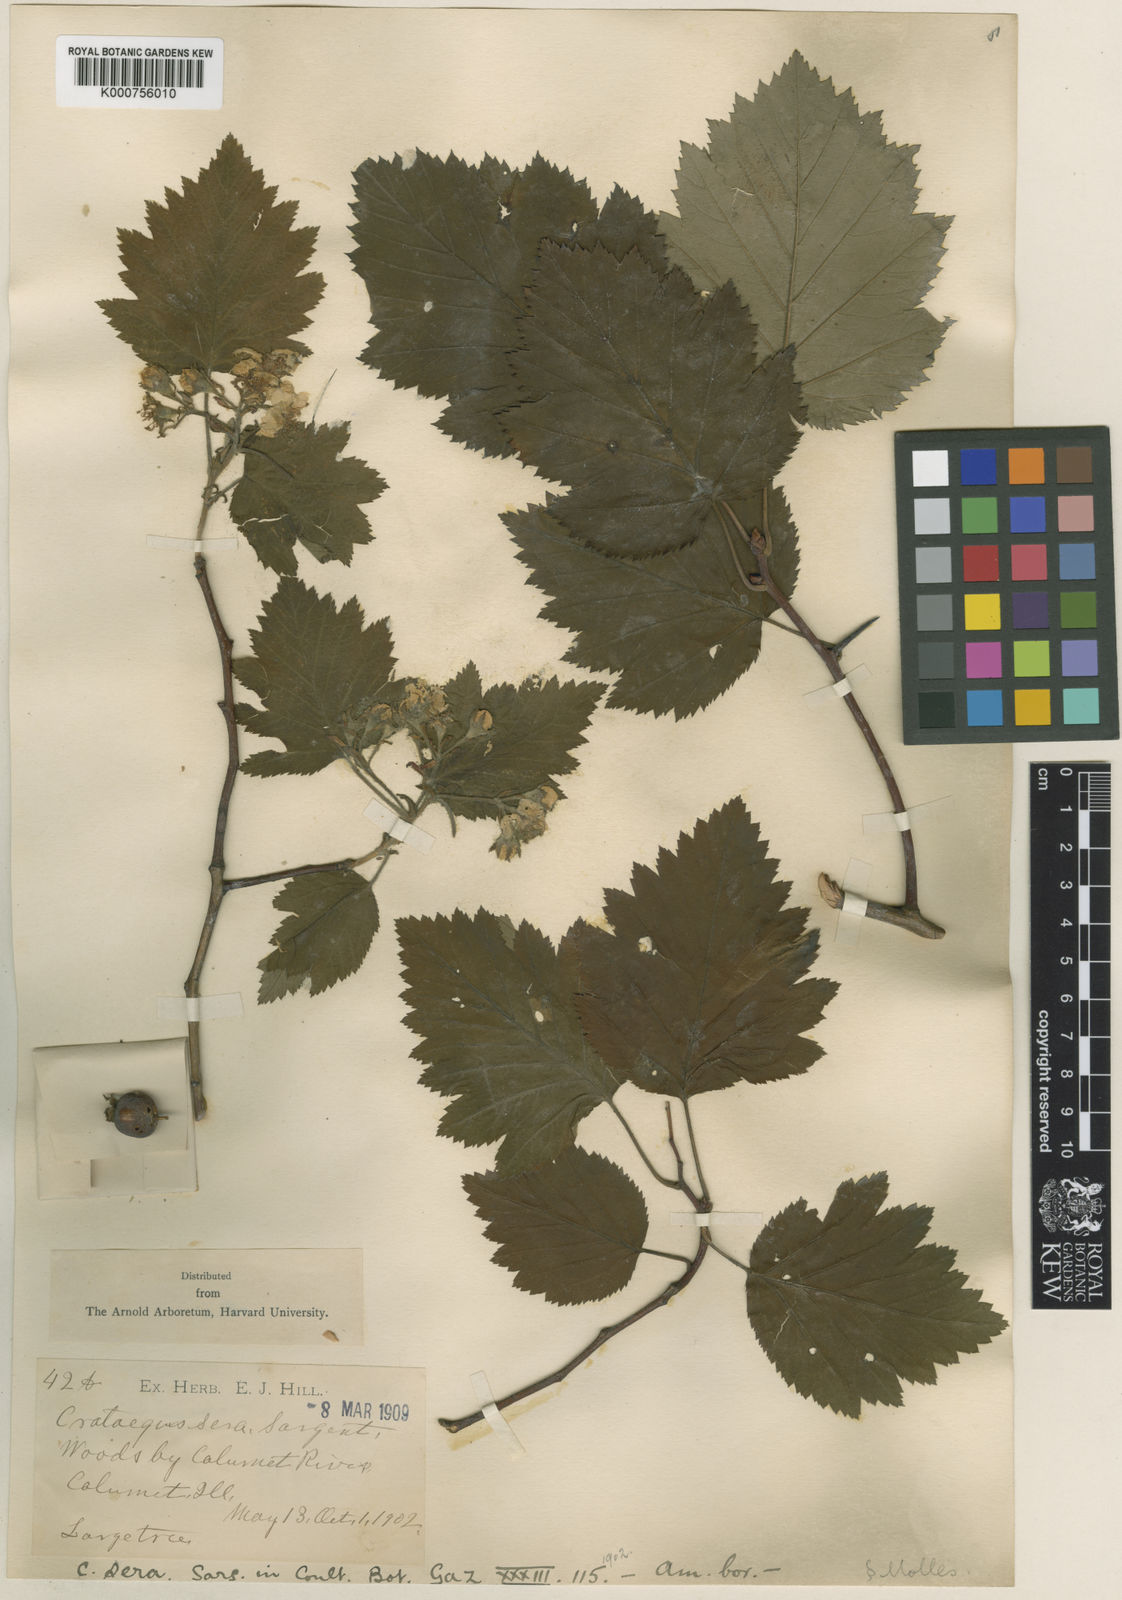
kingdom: Plantae
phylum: Tracheophyta
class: Magnoliopsida
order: Rosales
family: Rosaceae
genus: Crataegus
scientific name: Crataegus mollis
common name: Downy hawthorn
